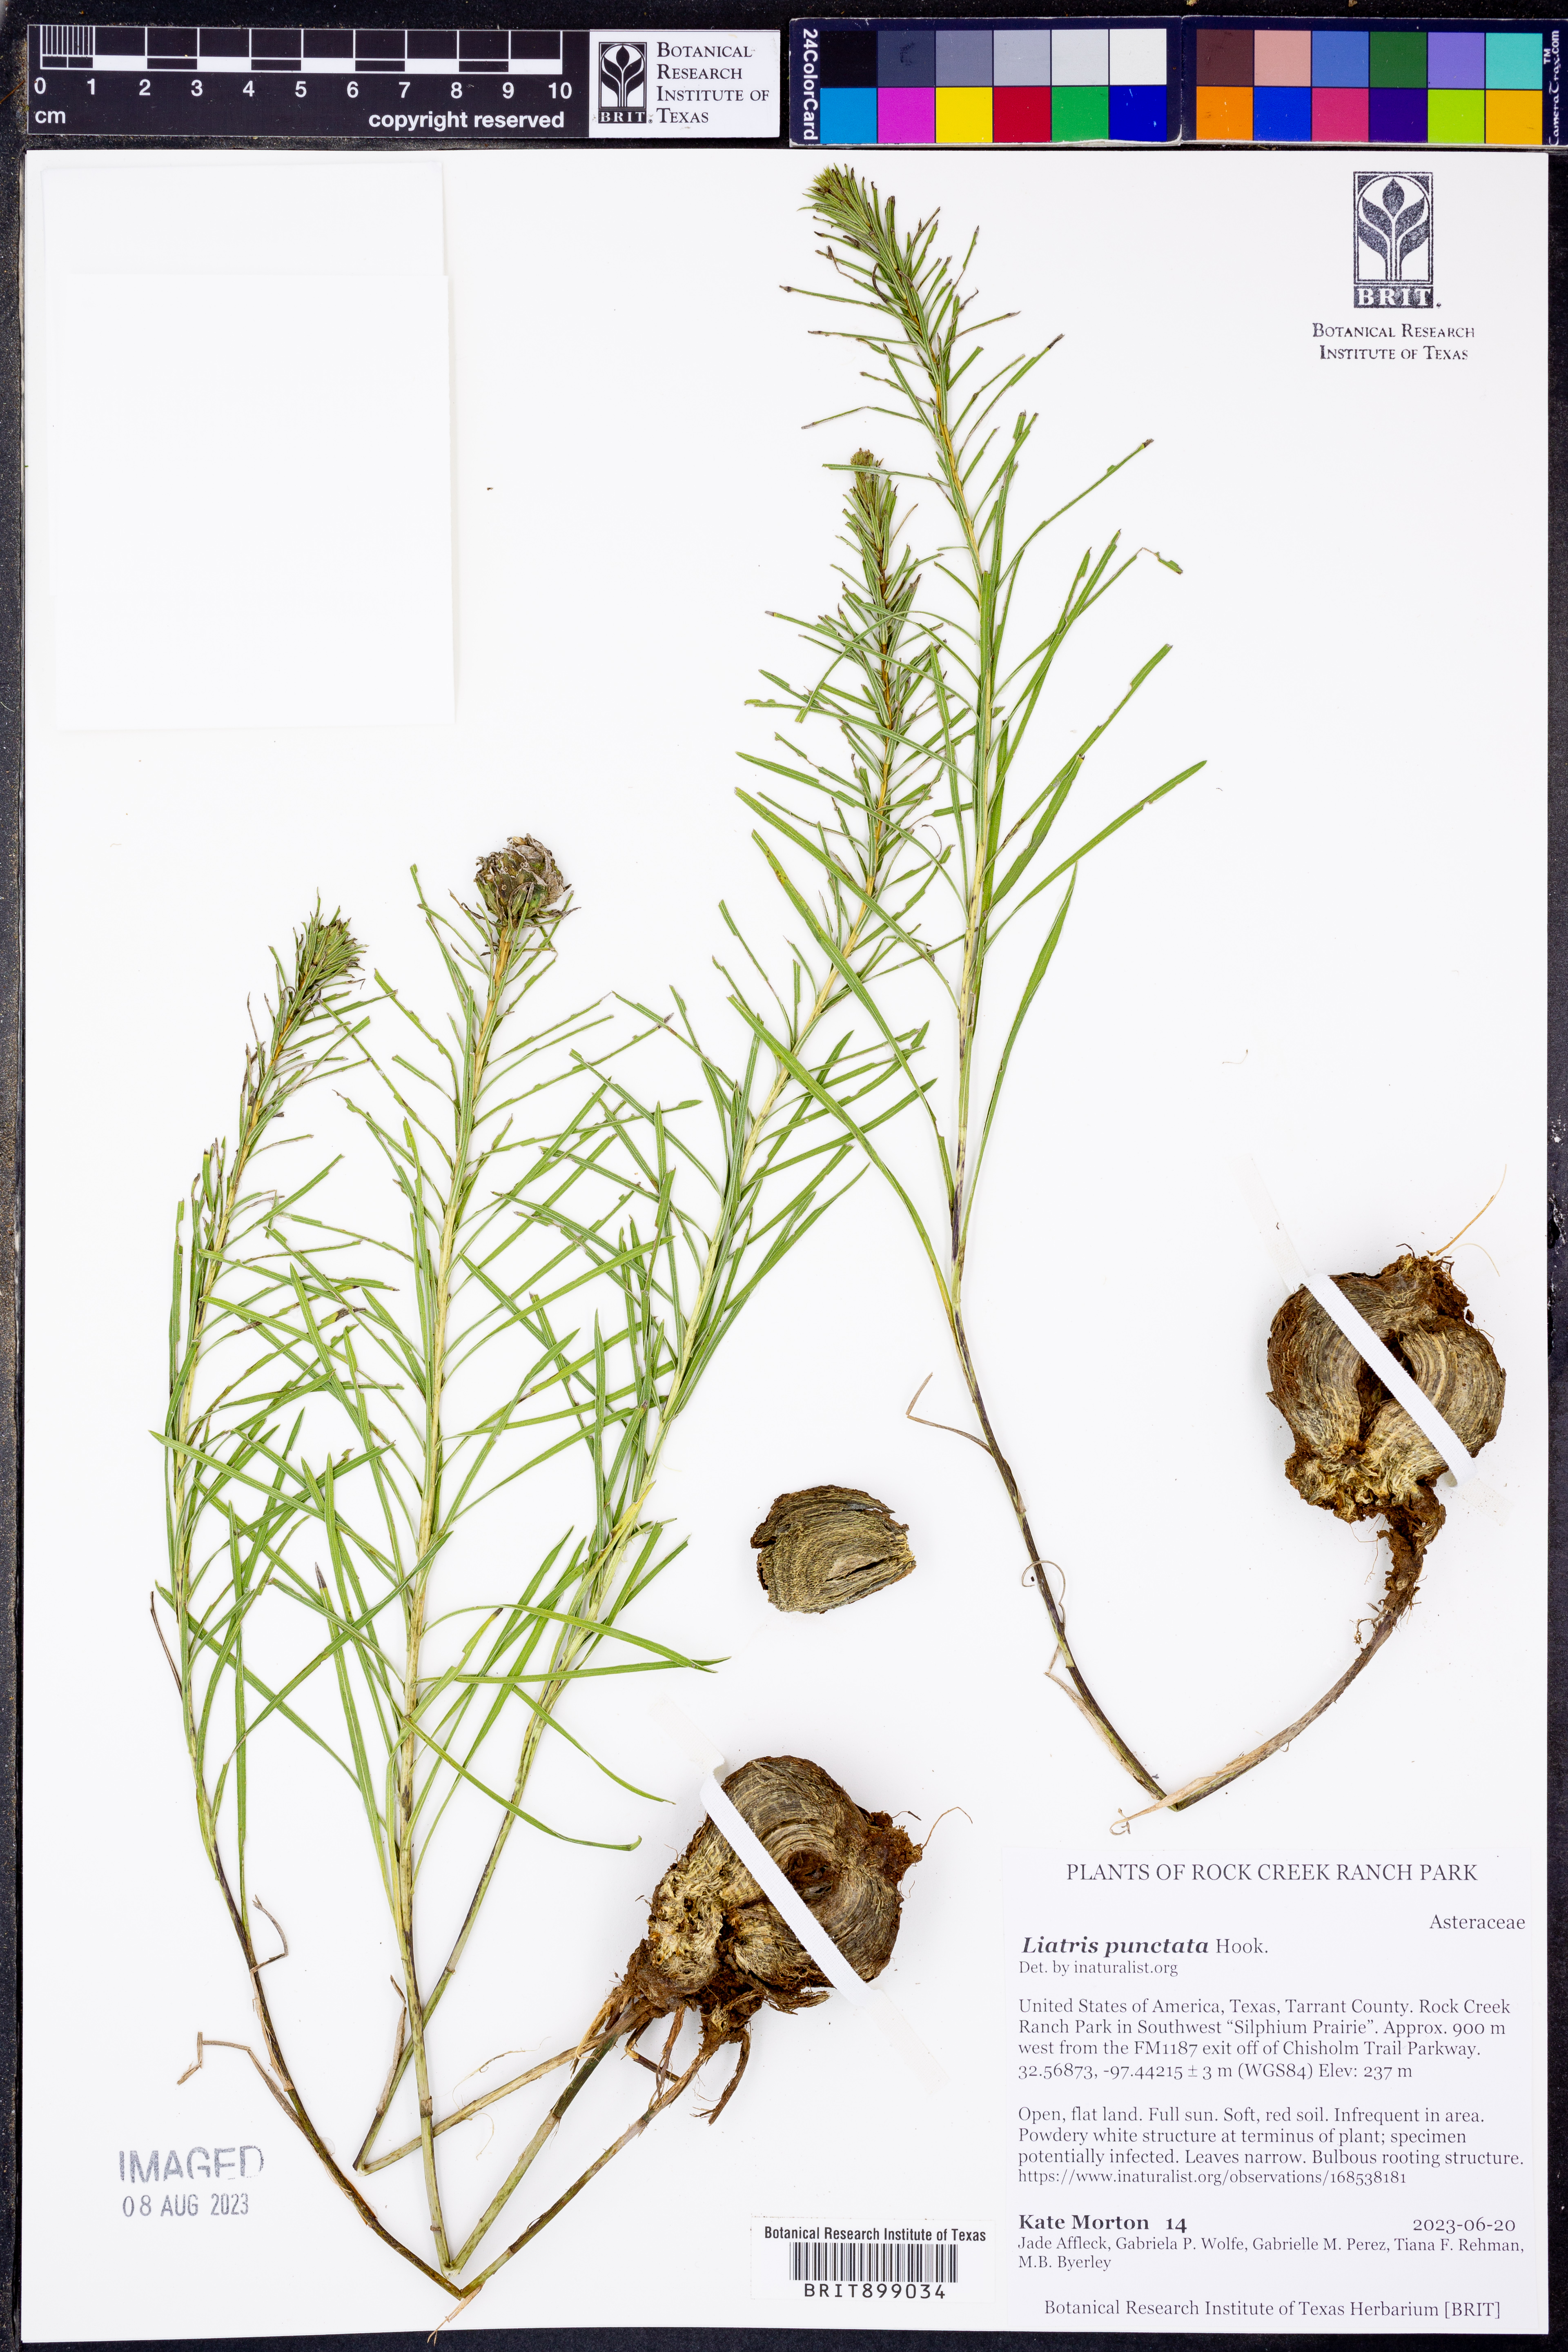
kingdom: Plantae
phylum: Tracheophyta
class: Magnoliopsida
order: Asterales
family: Asteraceae
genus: Liatris
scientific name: Liatris punctata
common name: Dotted gayfeather
